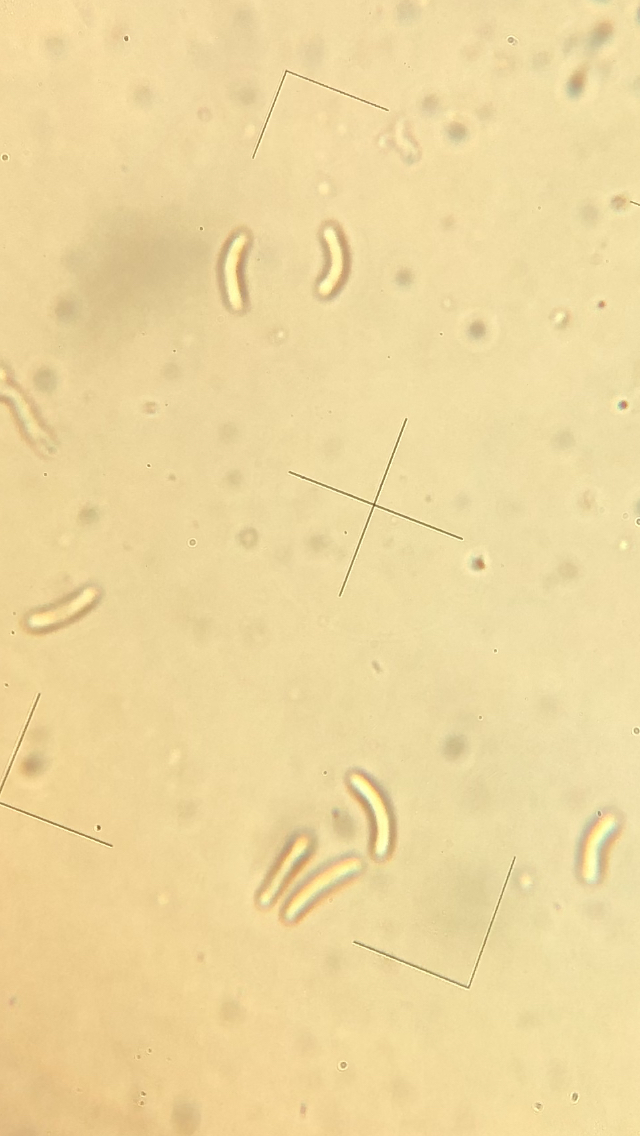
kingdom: Fungi
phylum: Ascomycota
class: Sordariomycetes
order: Xylariales
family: Diatrypaceae
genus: Diatrype
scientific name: Diatrype decorticata
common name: barksprænger-kulskorpe
